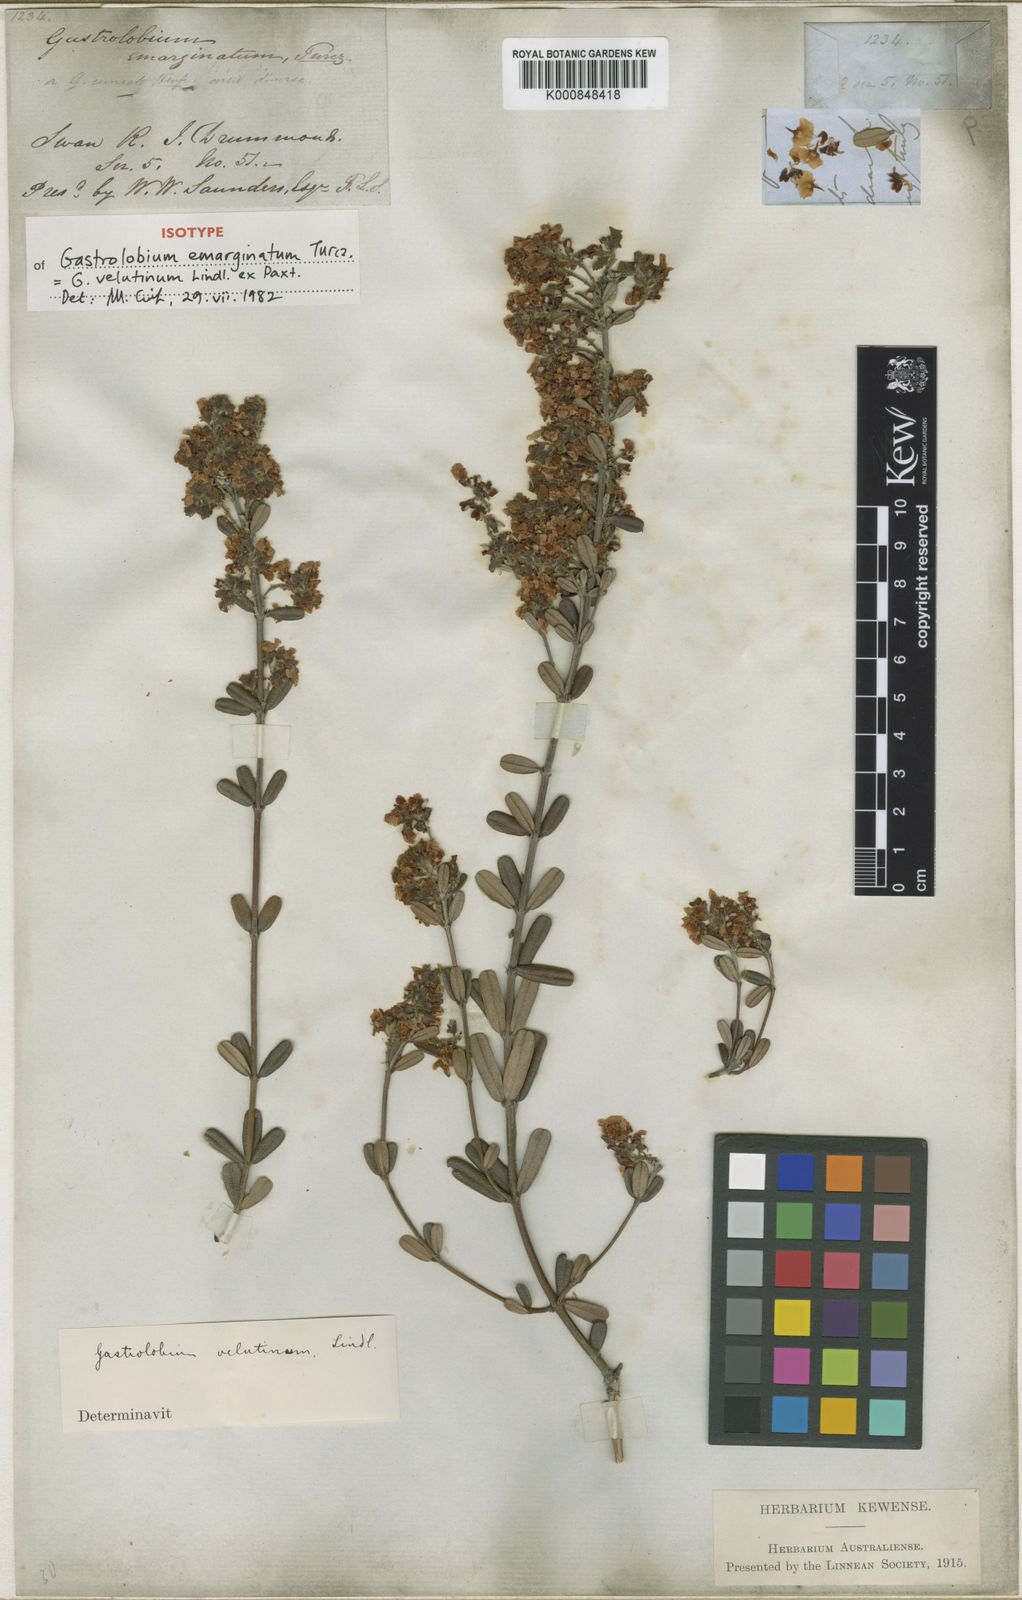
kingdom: Plantae
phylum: Tracheophyta
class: Magnoliopsida
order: Fabales
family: Fabaceae
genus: Gastrolobium
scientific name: Gastrolobium velutinum
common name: Stirling range poison
